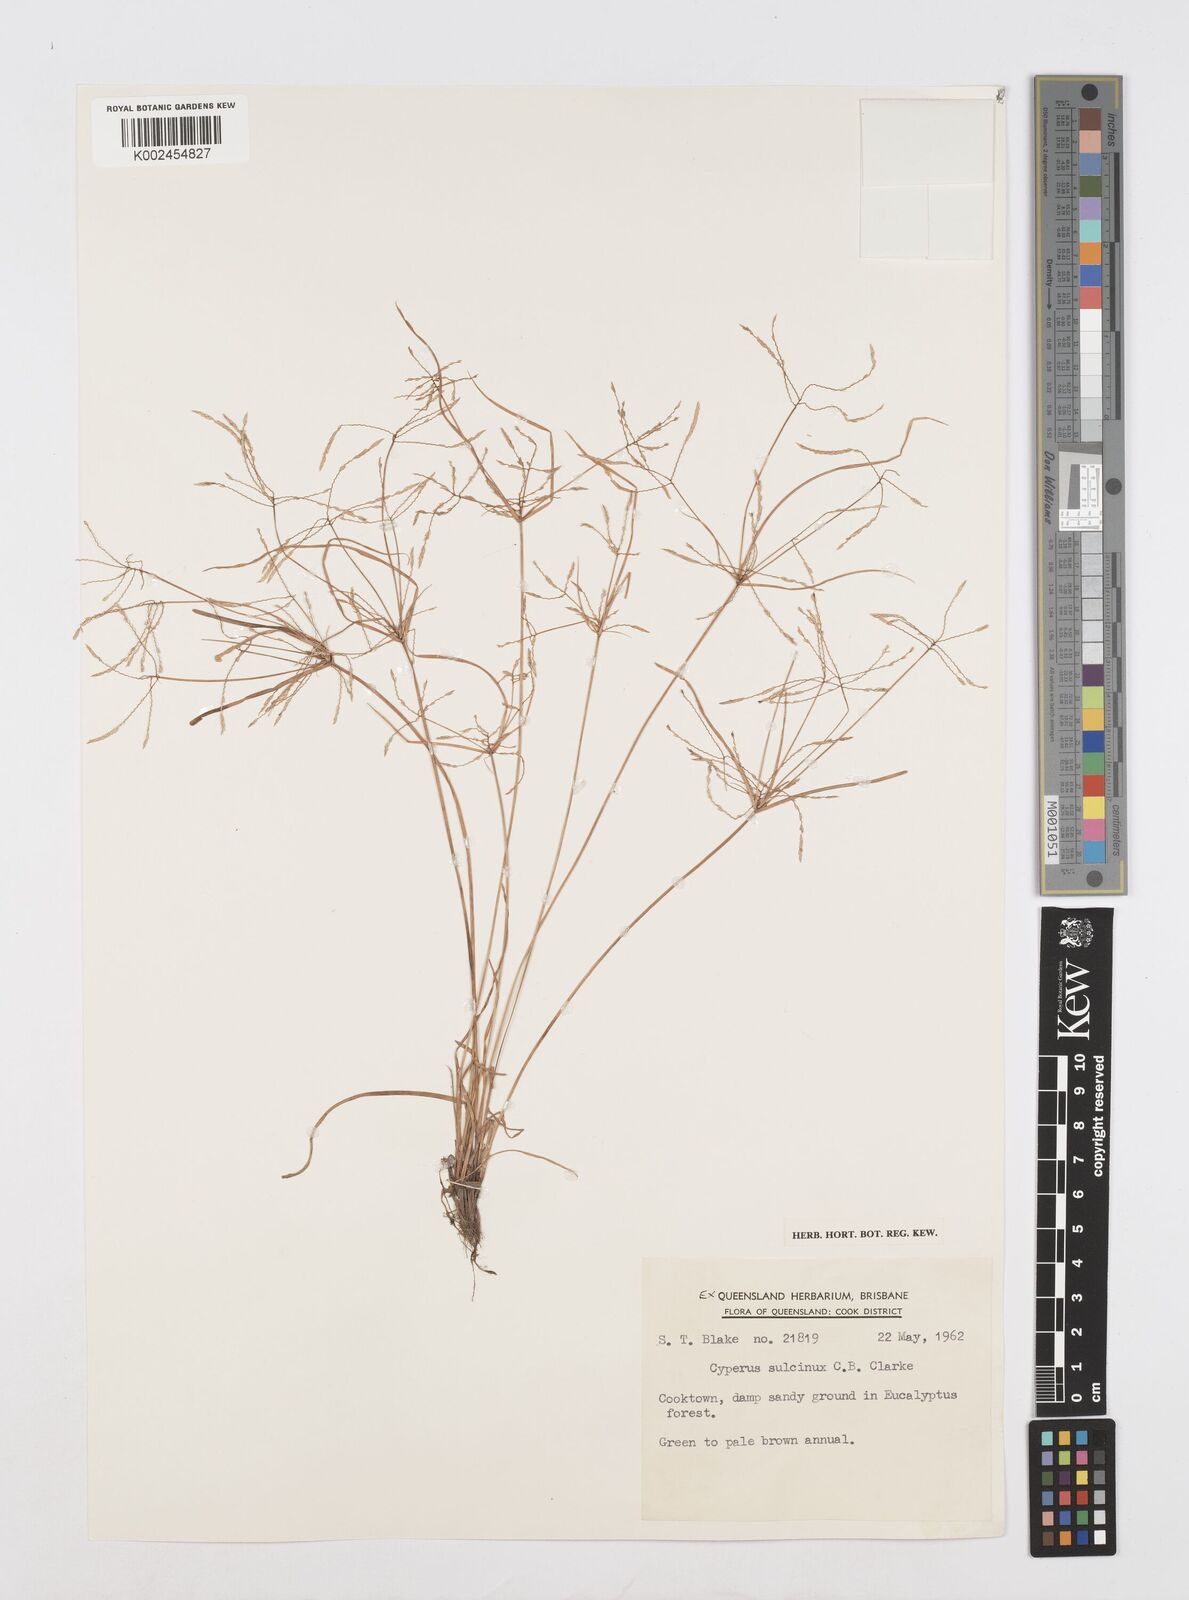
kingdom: Plantae
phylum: Tracheophyta
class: Liliopsida
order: Poales
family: Cyperaceae
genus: Cyperus
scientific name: Cyperus sulcinux
